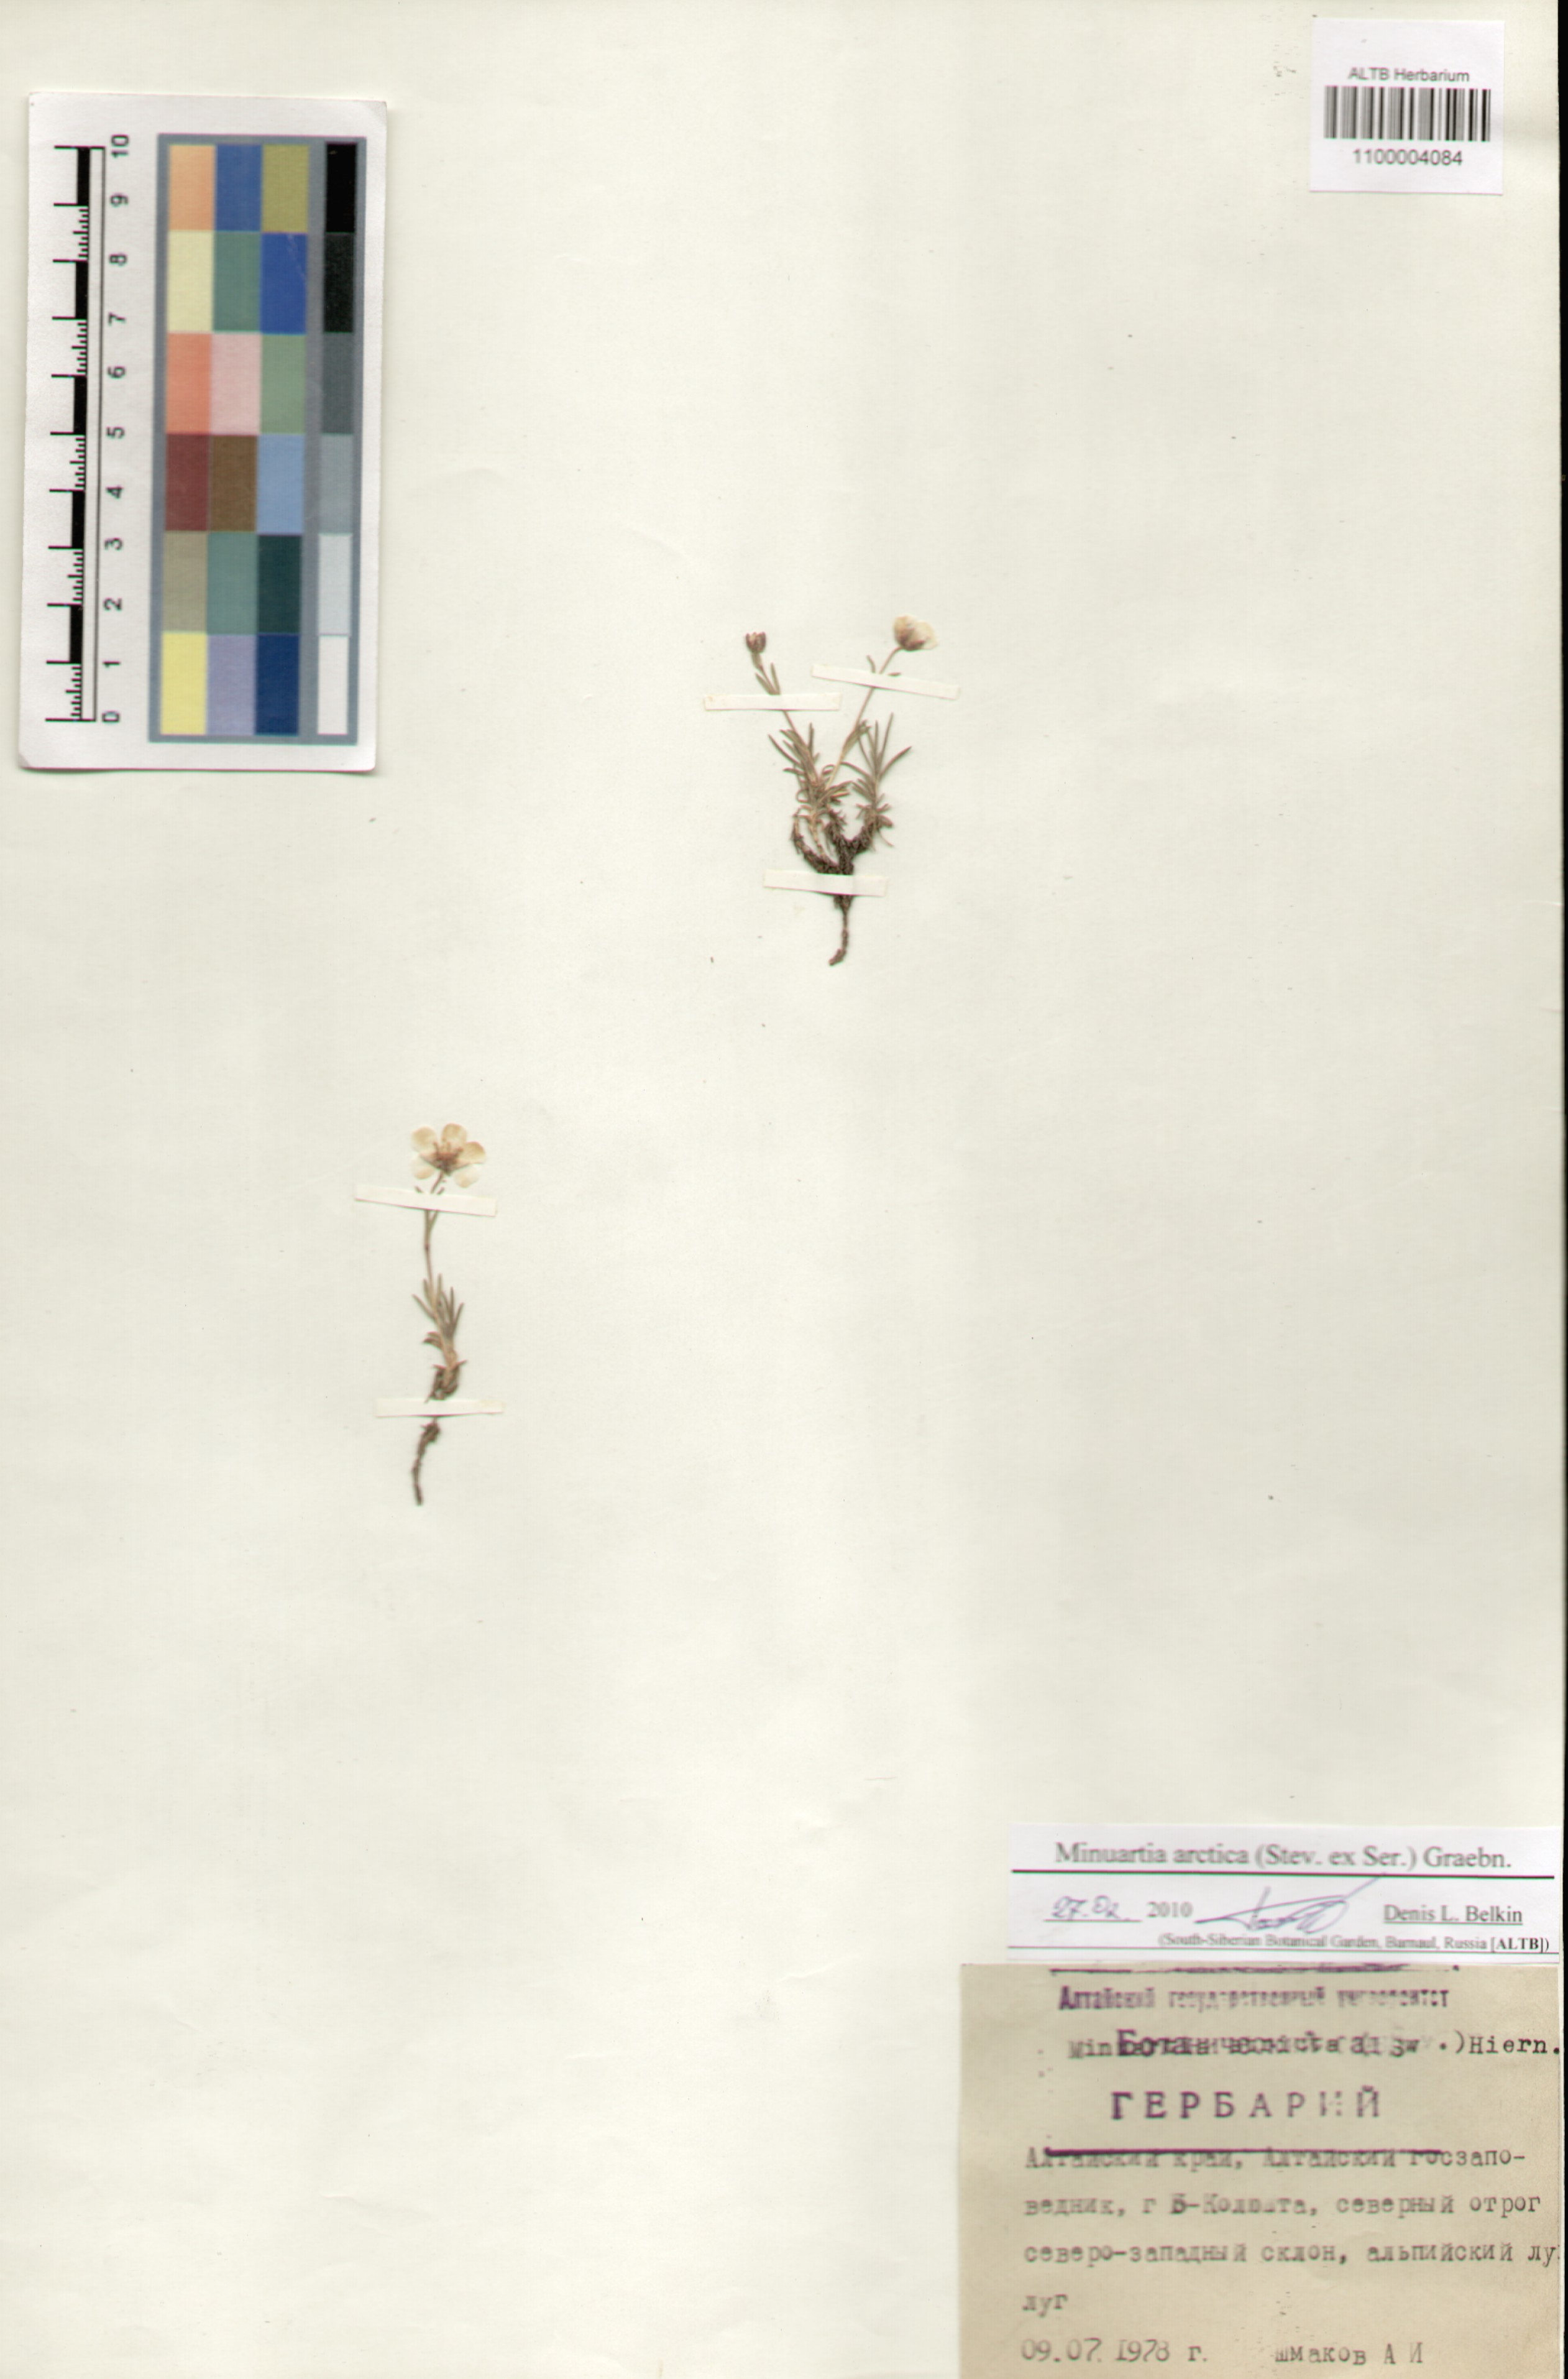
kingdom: Plantae
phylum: Tracheophyta
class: Magnoliopsida
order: Caryophyllales
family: Caryophyllaceae
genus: Cherleria
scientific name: Cherleria arctica
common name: Arctic sandwort
